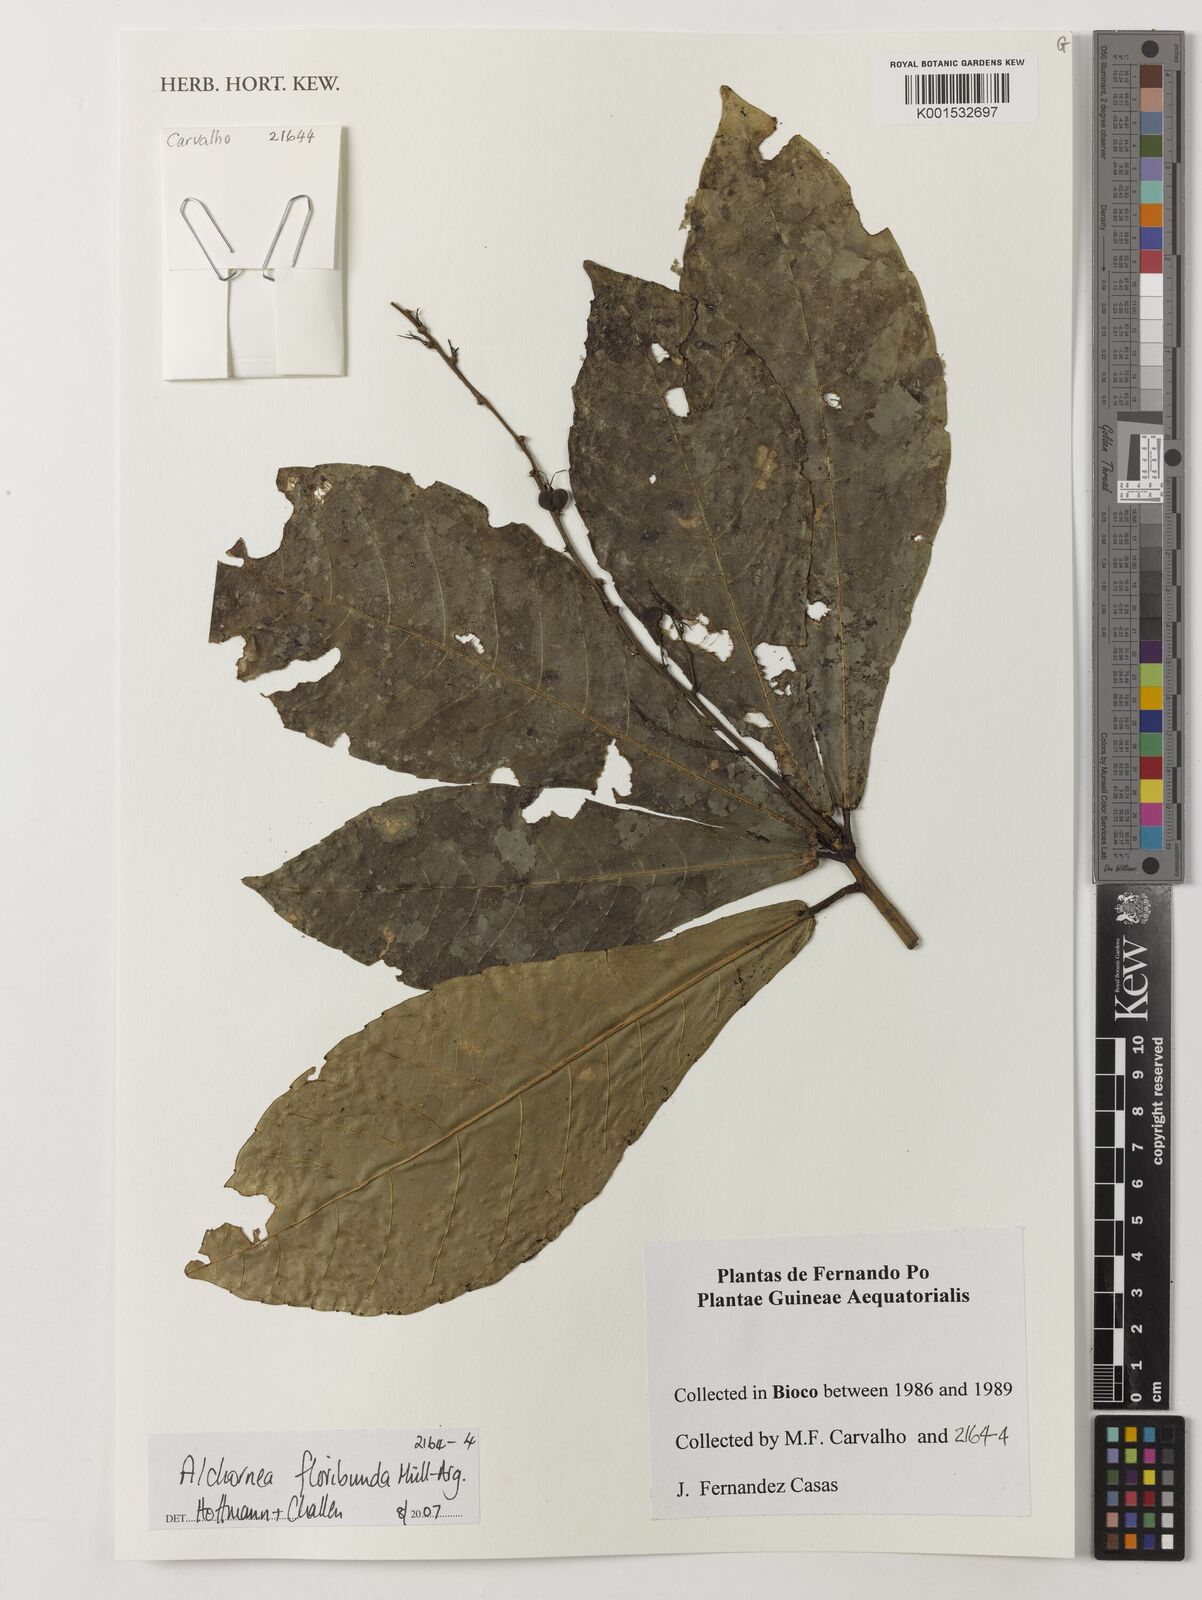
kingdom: Plantae
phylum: Tracheophyta
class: Magnoliopsida
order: Malpighiales
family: Euphorbiaceae
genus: Alchornea
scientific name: Alchornea floribunda
